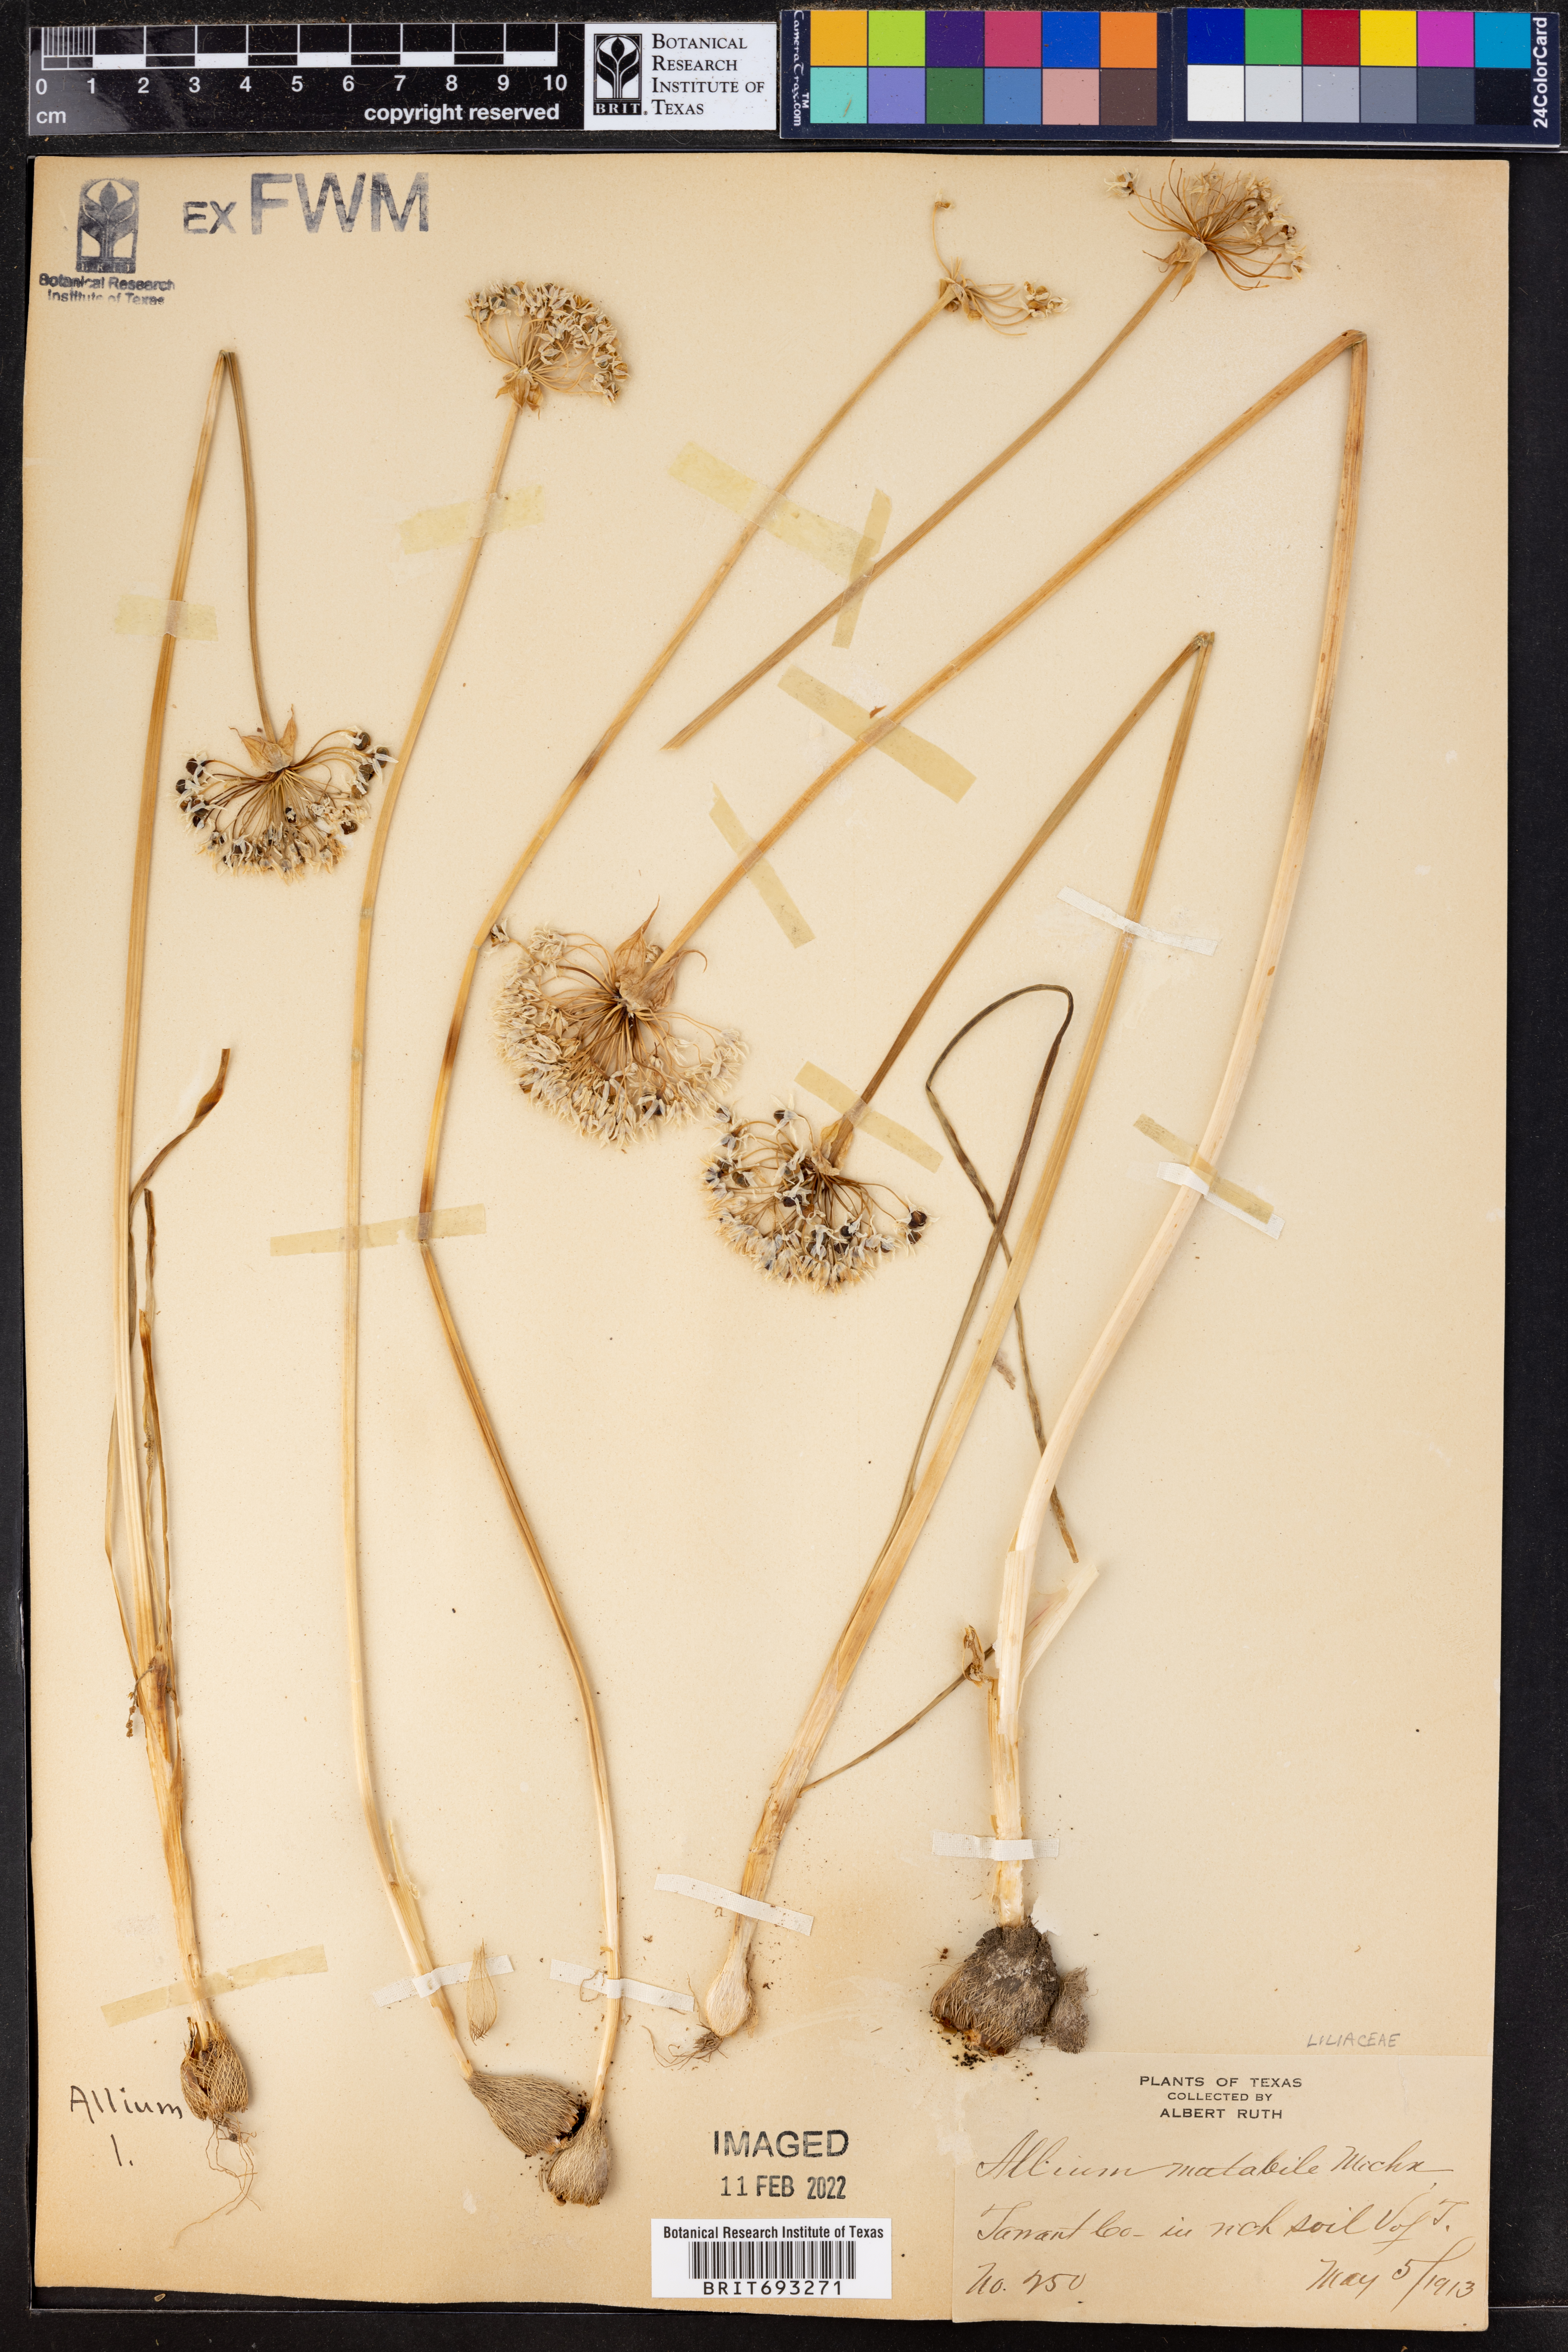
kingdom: Plantae
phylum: Tracheophyta
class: Liliopsida
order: Asparagales
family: Amaryllidaceae
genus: Allium
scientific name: Allium canadense
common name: Meadow garlic
